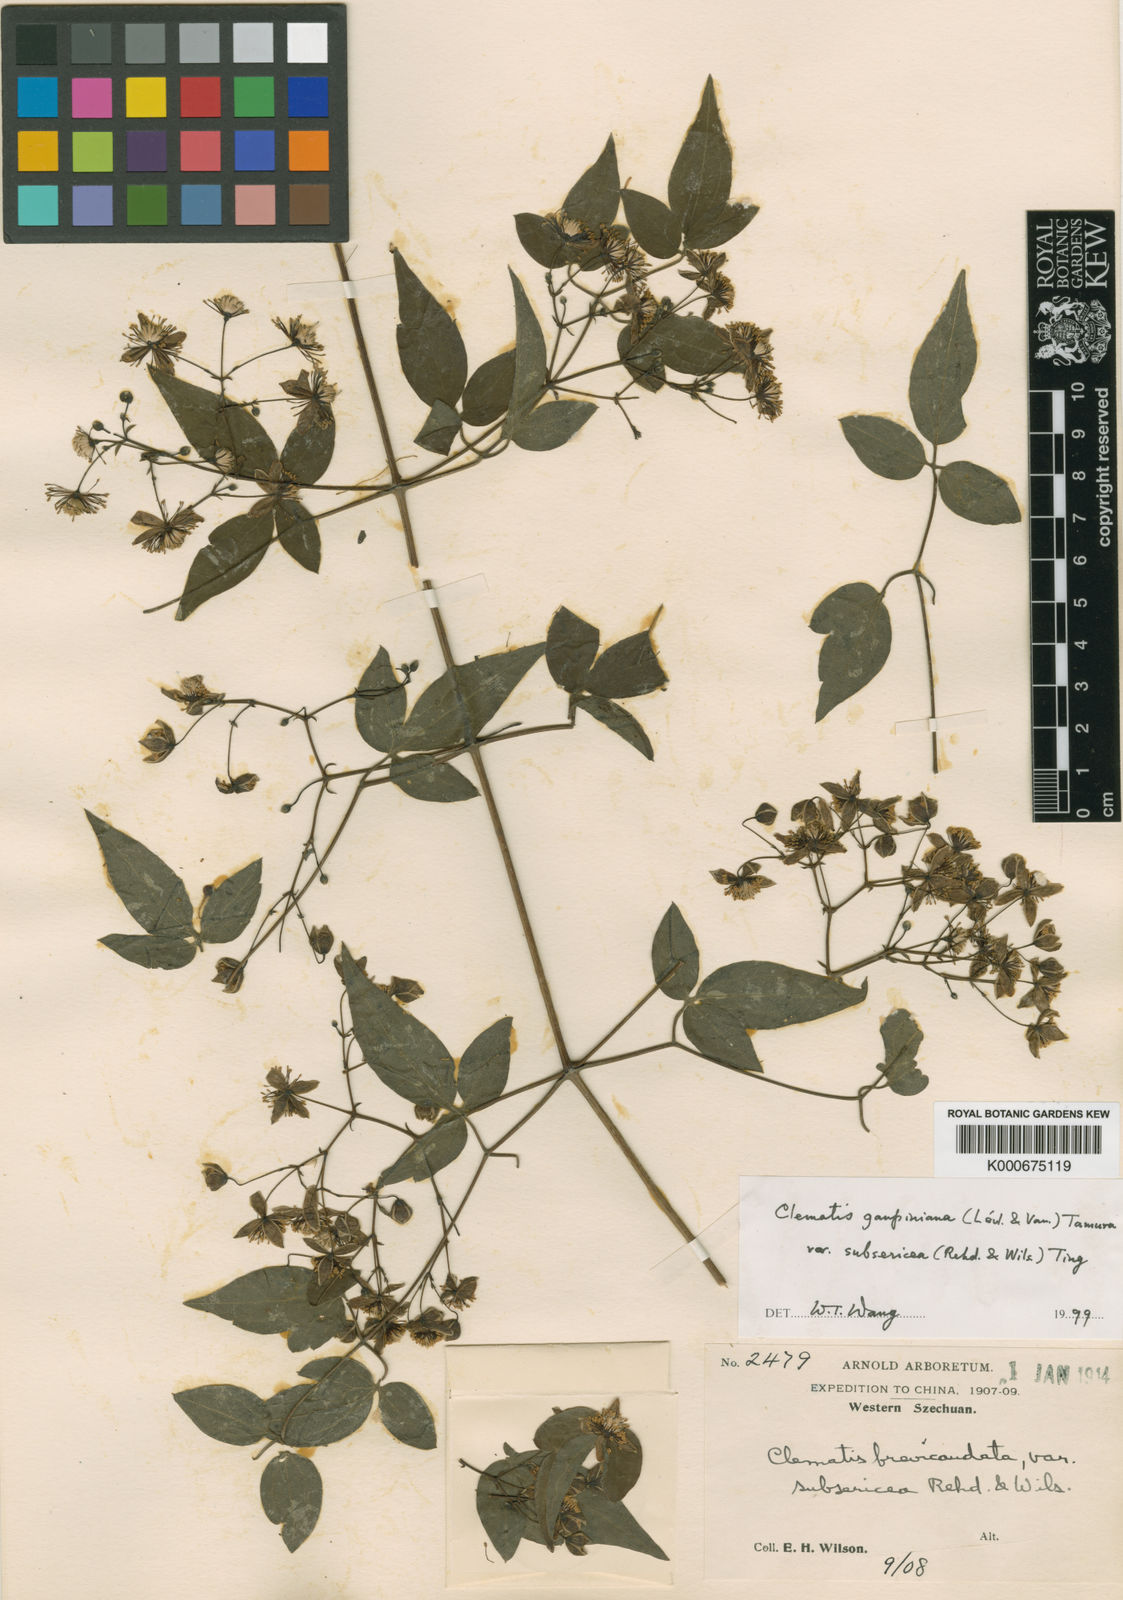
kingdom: Plantae
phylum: Tracheophyta
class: Magnoliopsida
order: Ranunculales
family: Ranunculaceae
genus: Clematis
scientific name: Clematis
